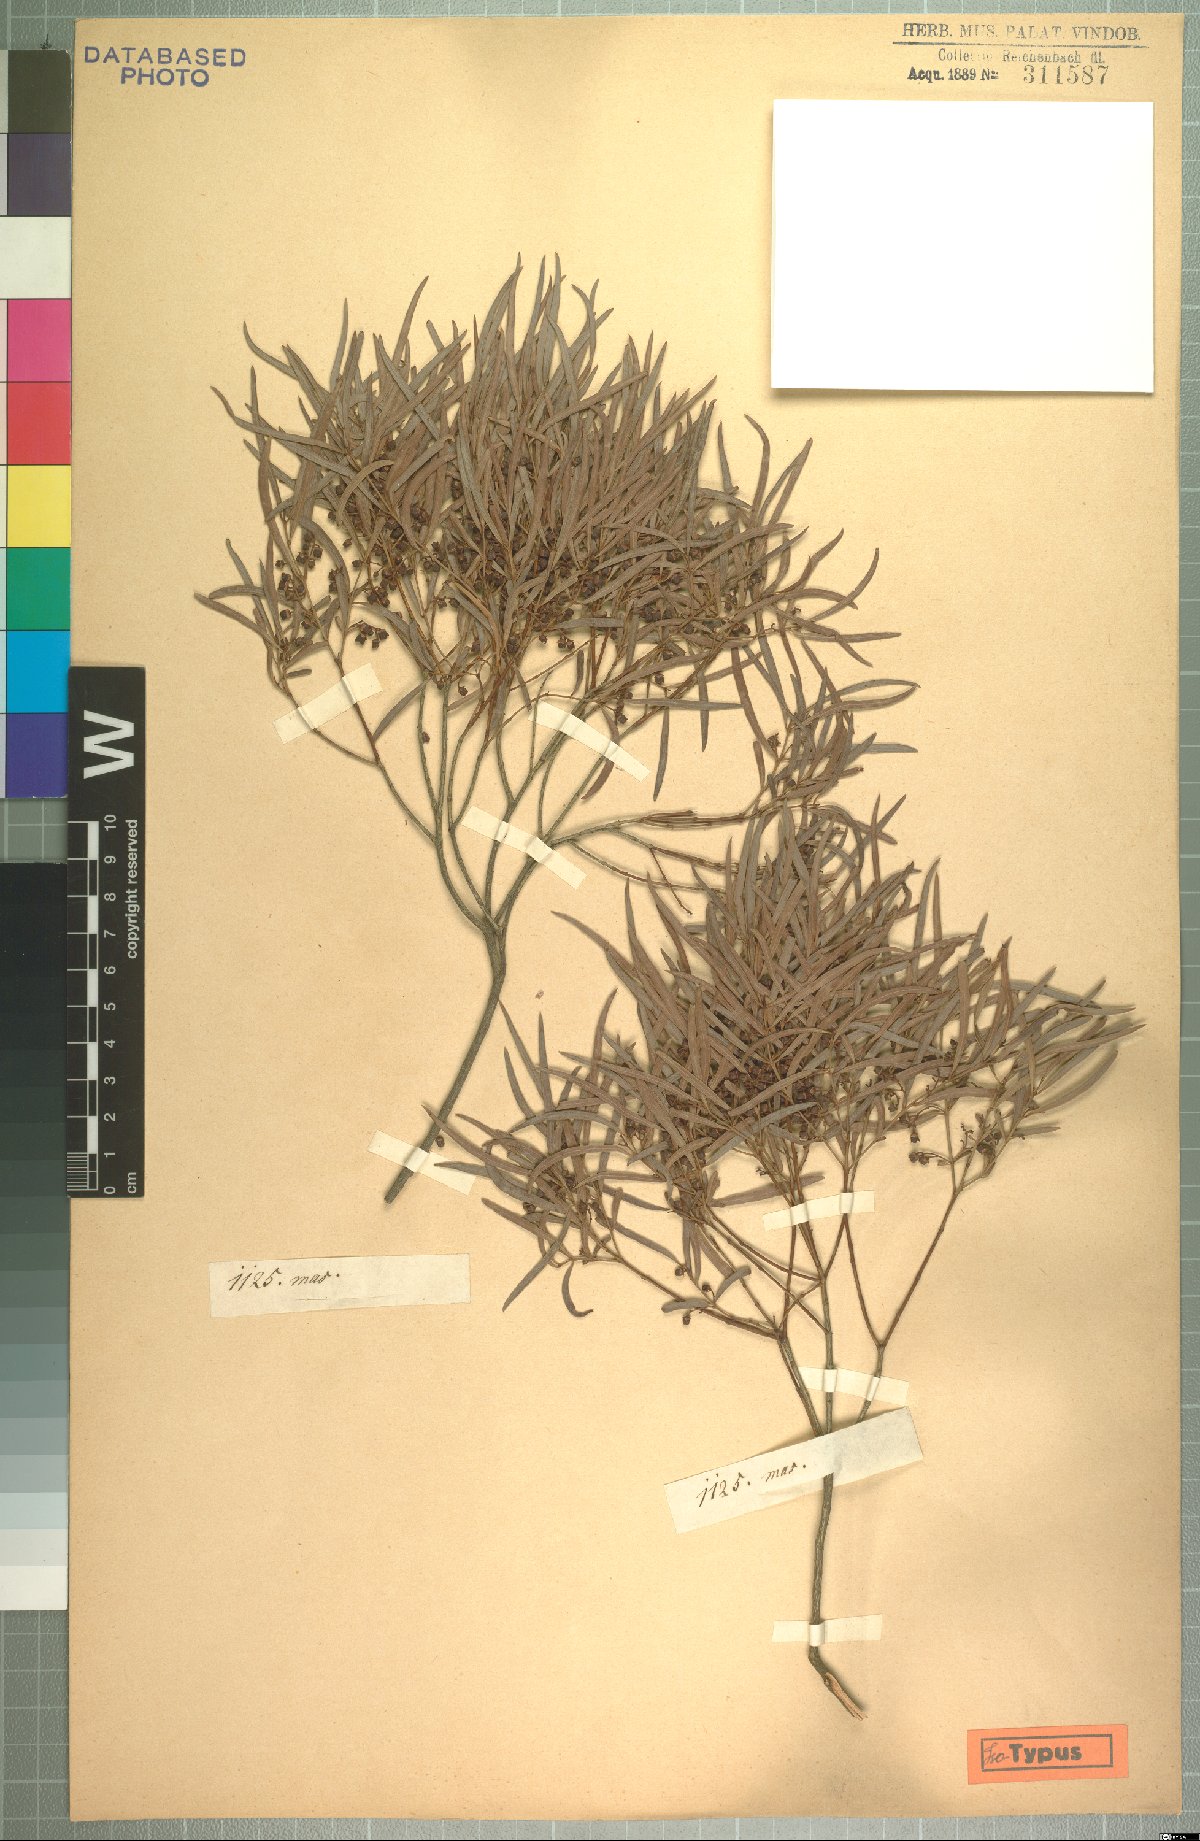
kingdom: Plantae
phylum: Tracheophyta
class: Magnoliopsida
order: Ericales
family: Ebenaceae
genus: Euclea
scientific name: Euclea crispa
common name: Blue guarri
